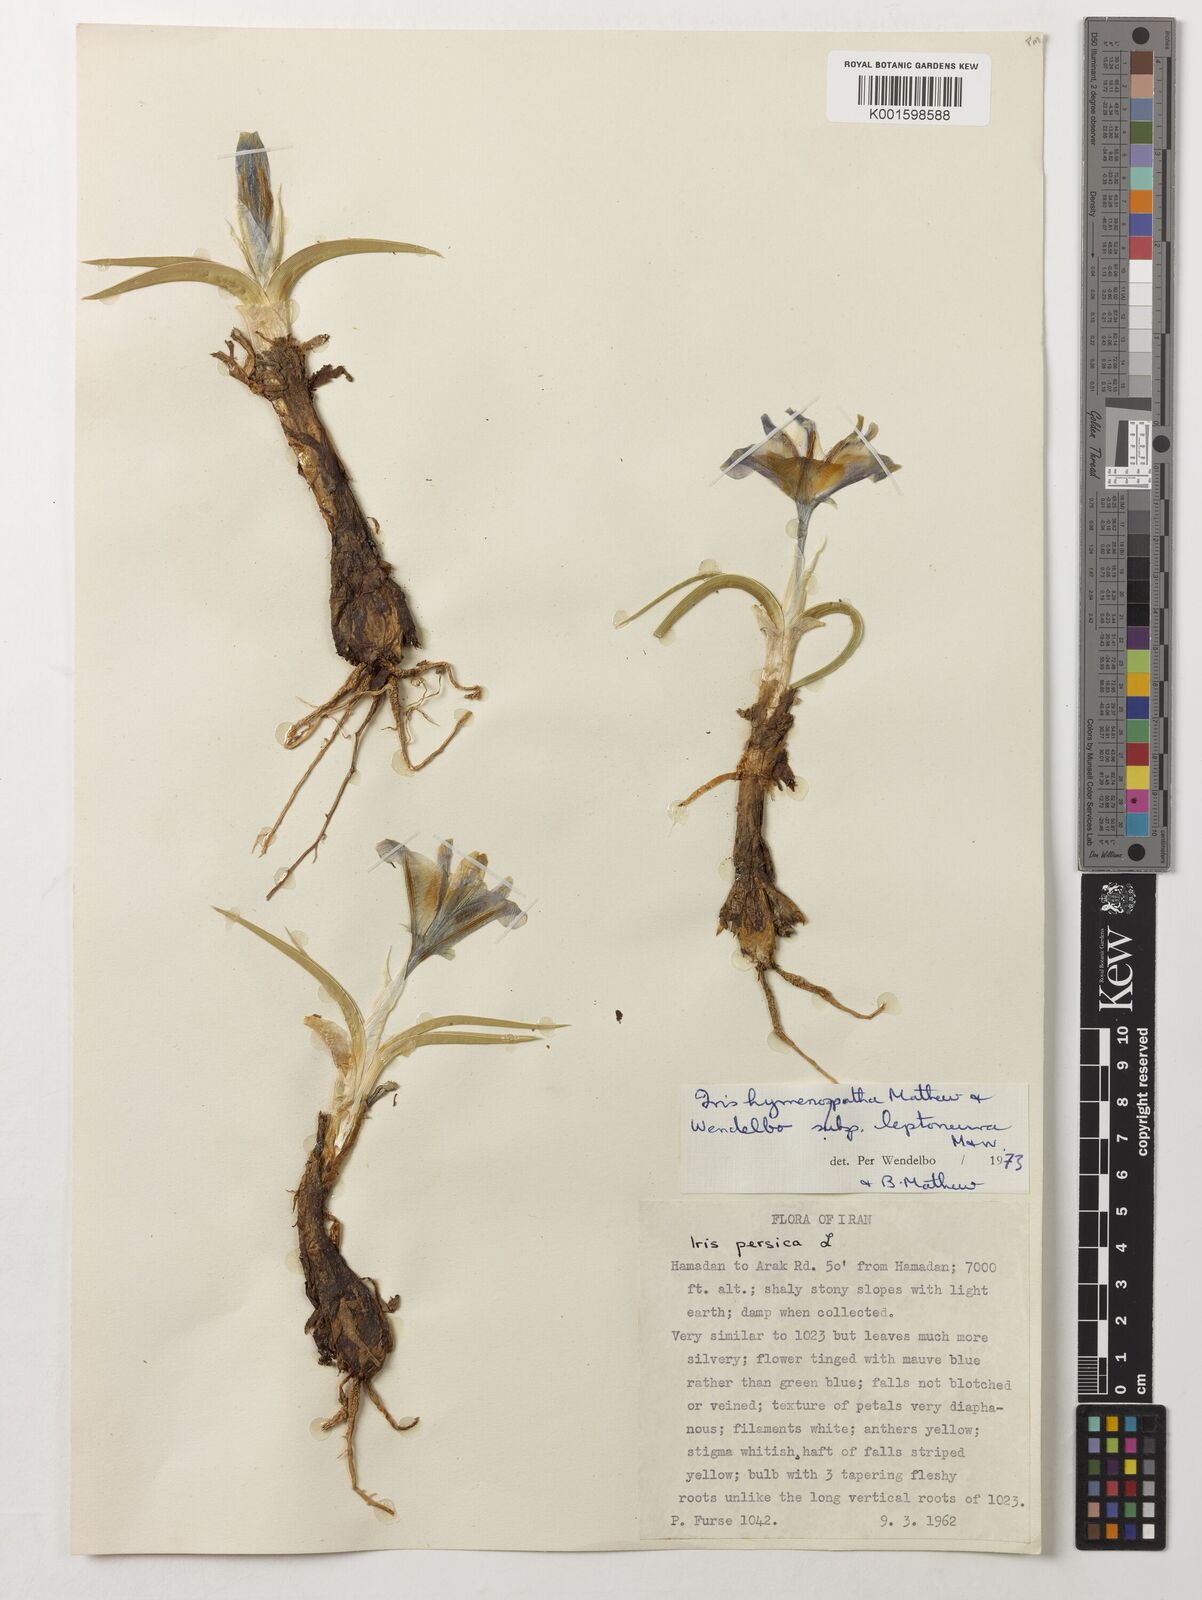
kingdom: Plantae
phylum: Tracheophyta
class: Liliopsida
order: Asparagales
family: Iridaceae
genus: Iris
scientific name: Iris hymenospatha
